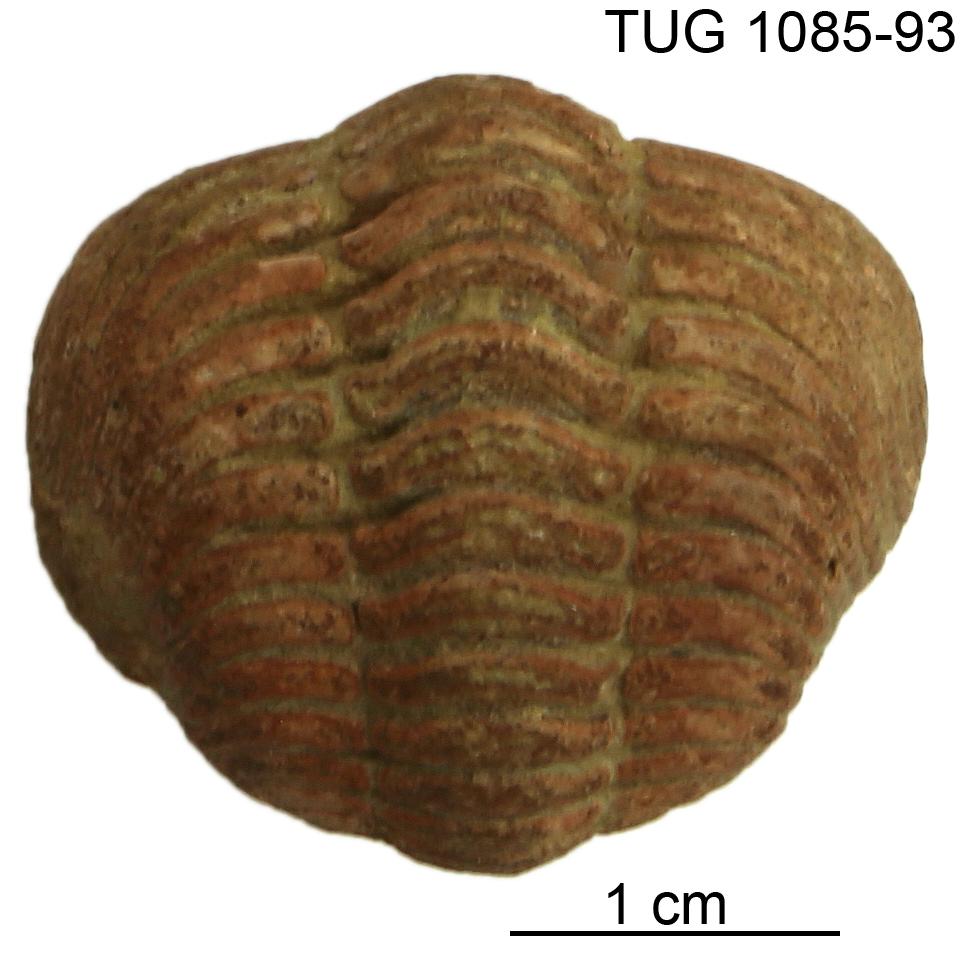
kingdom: Animalia
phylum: Arthropoda
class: Trilobita
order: Phacopida
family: Pliomeridae
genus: Pliomera
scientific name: Pliomera Asaphus fisheri
